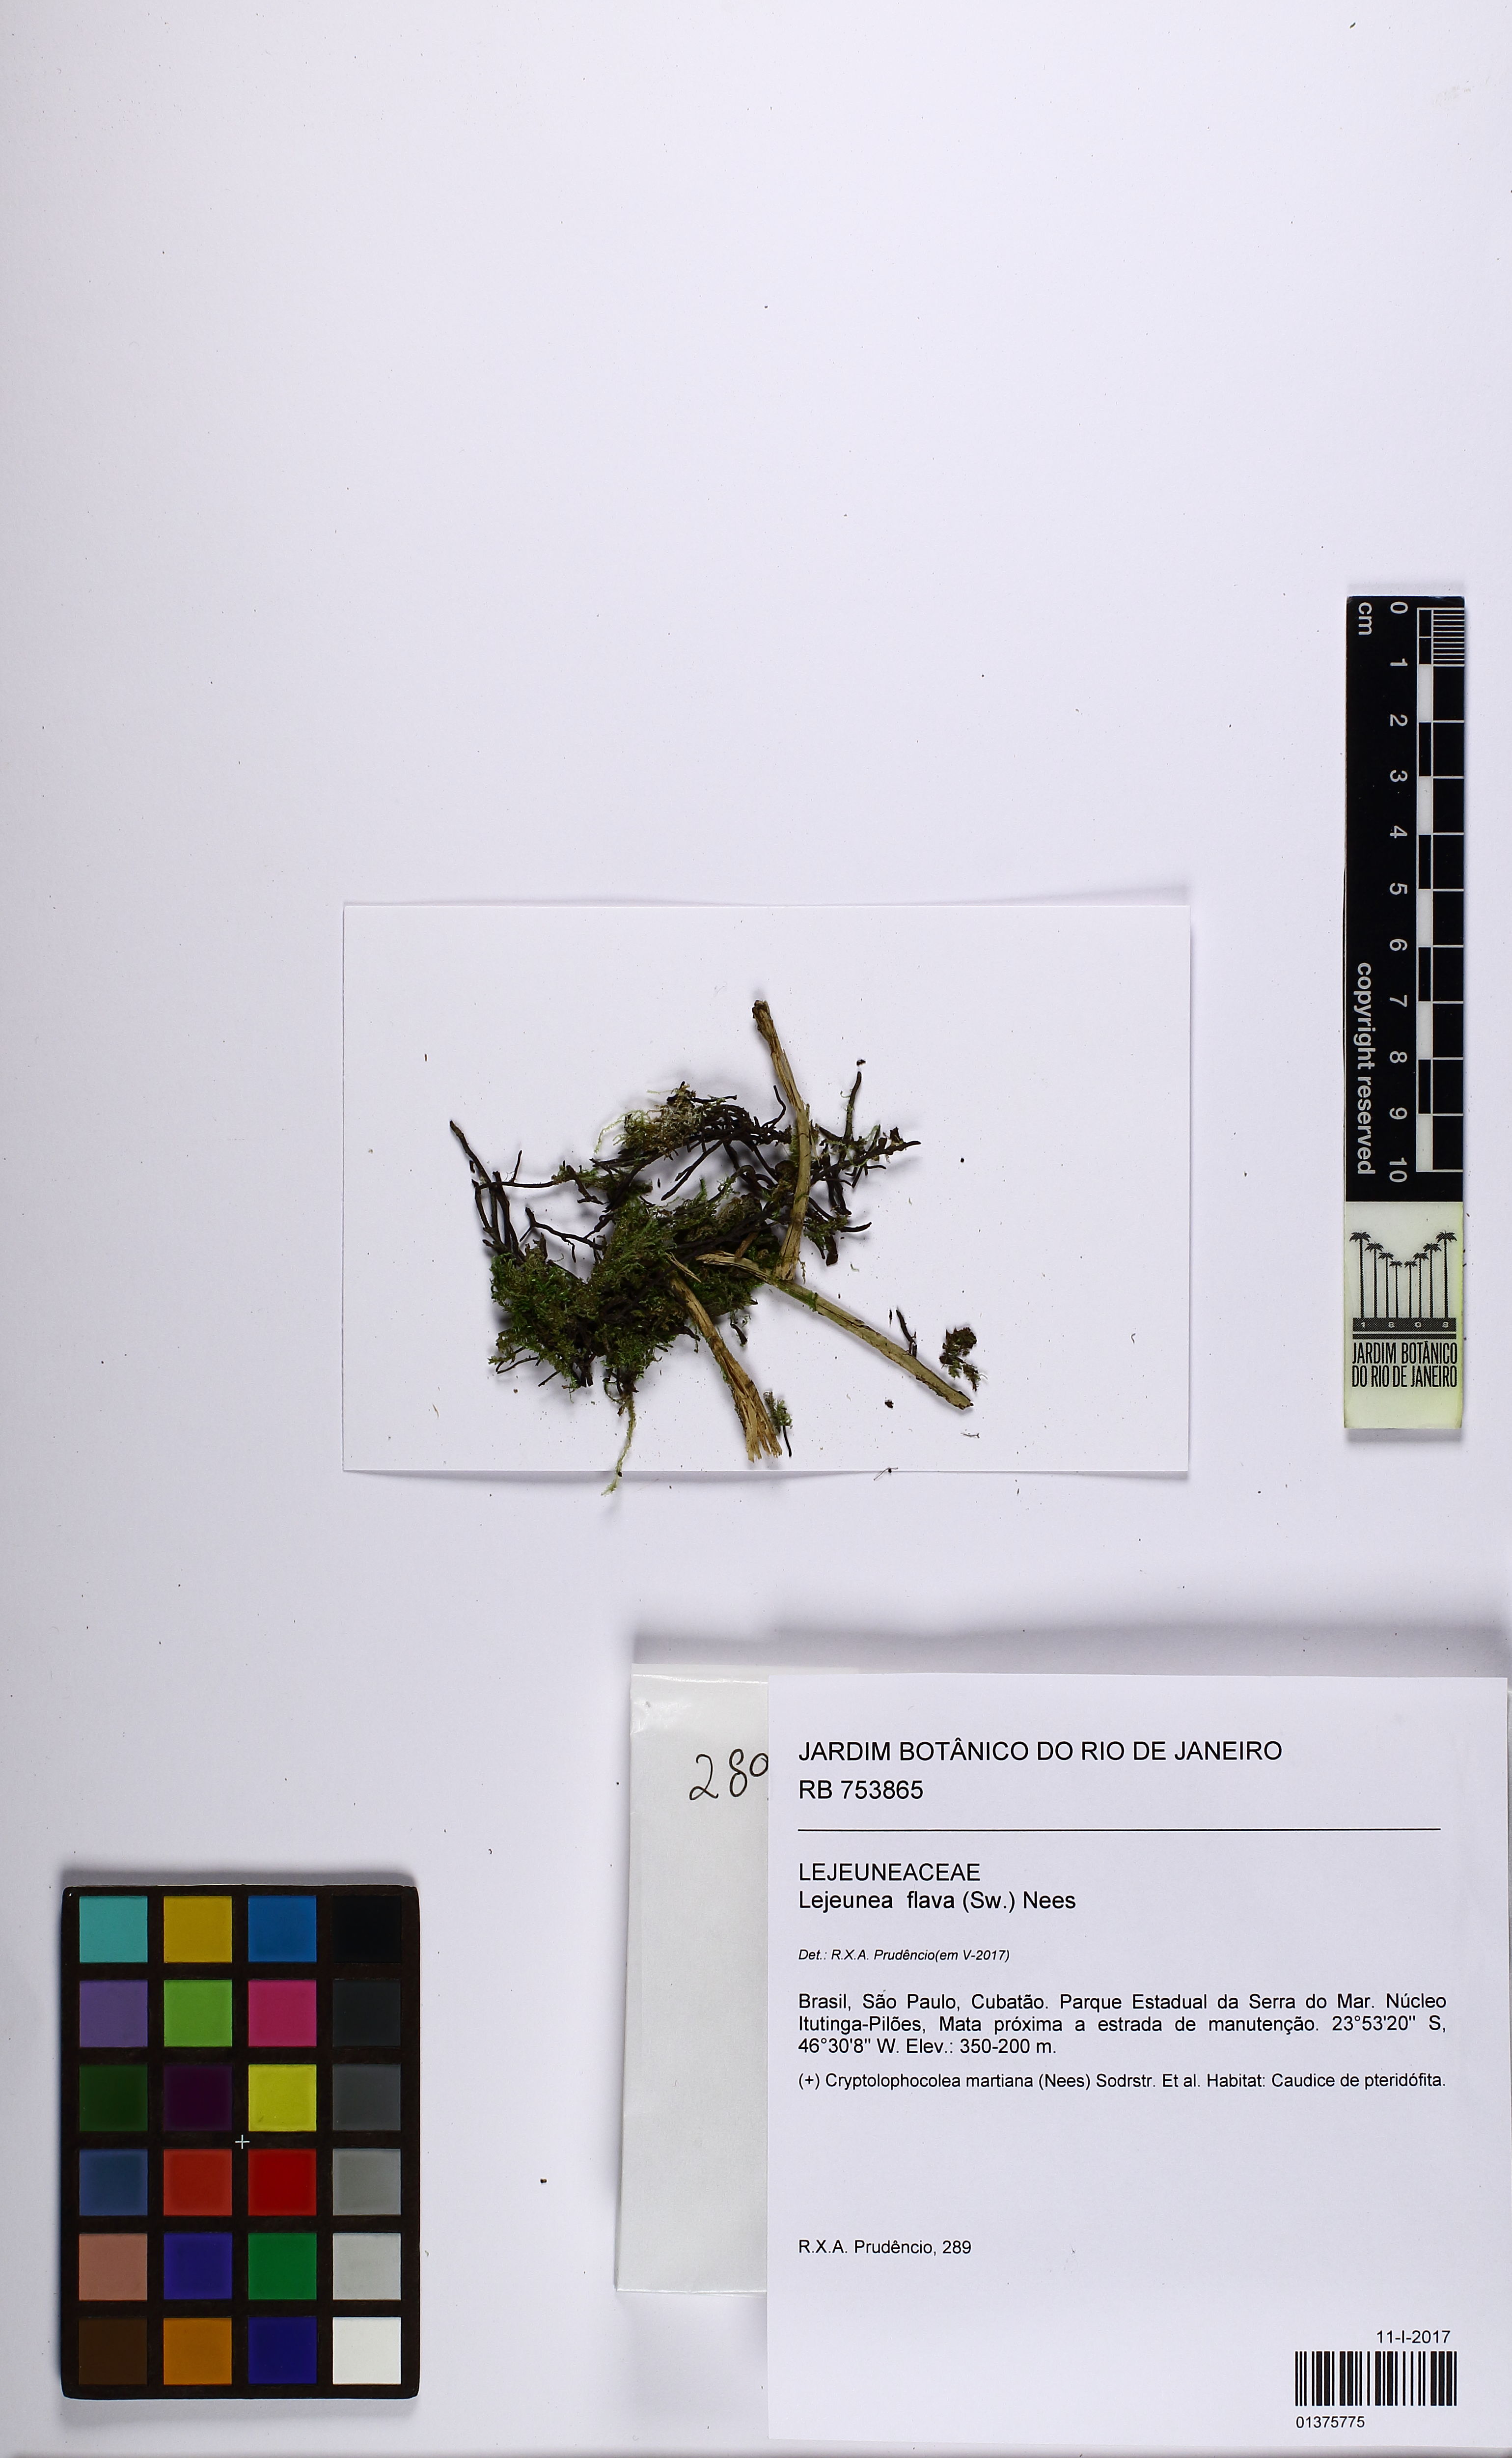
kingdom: Plantae
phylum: Marchantiophyta
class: Jungermanniopsida
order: Porellales
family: Lejeuneaceae
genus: Lejeunea
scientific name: Lejeunea flava
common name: Yellow pouncewort
